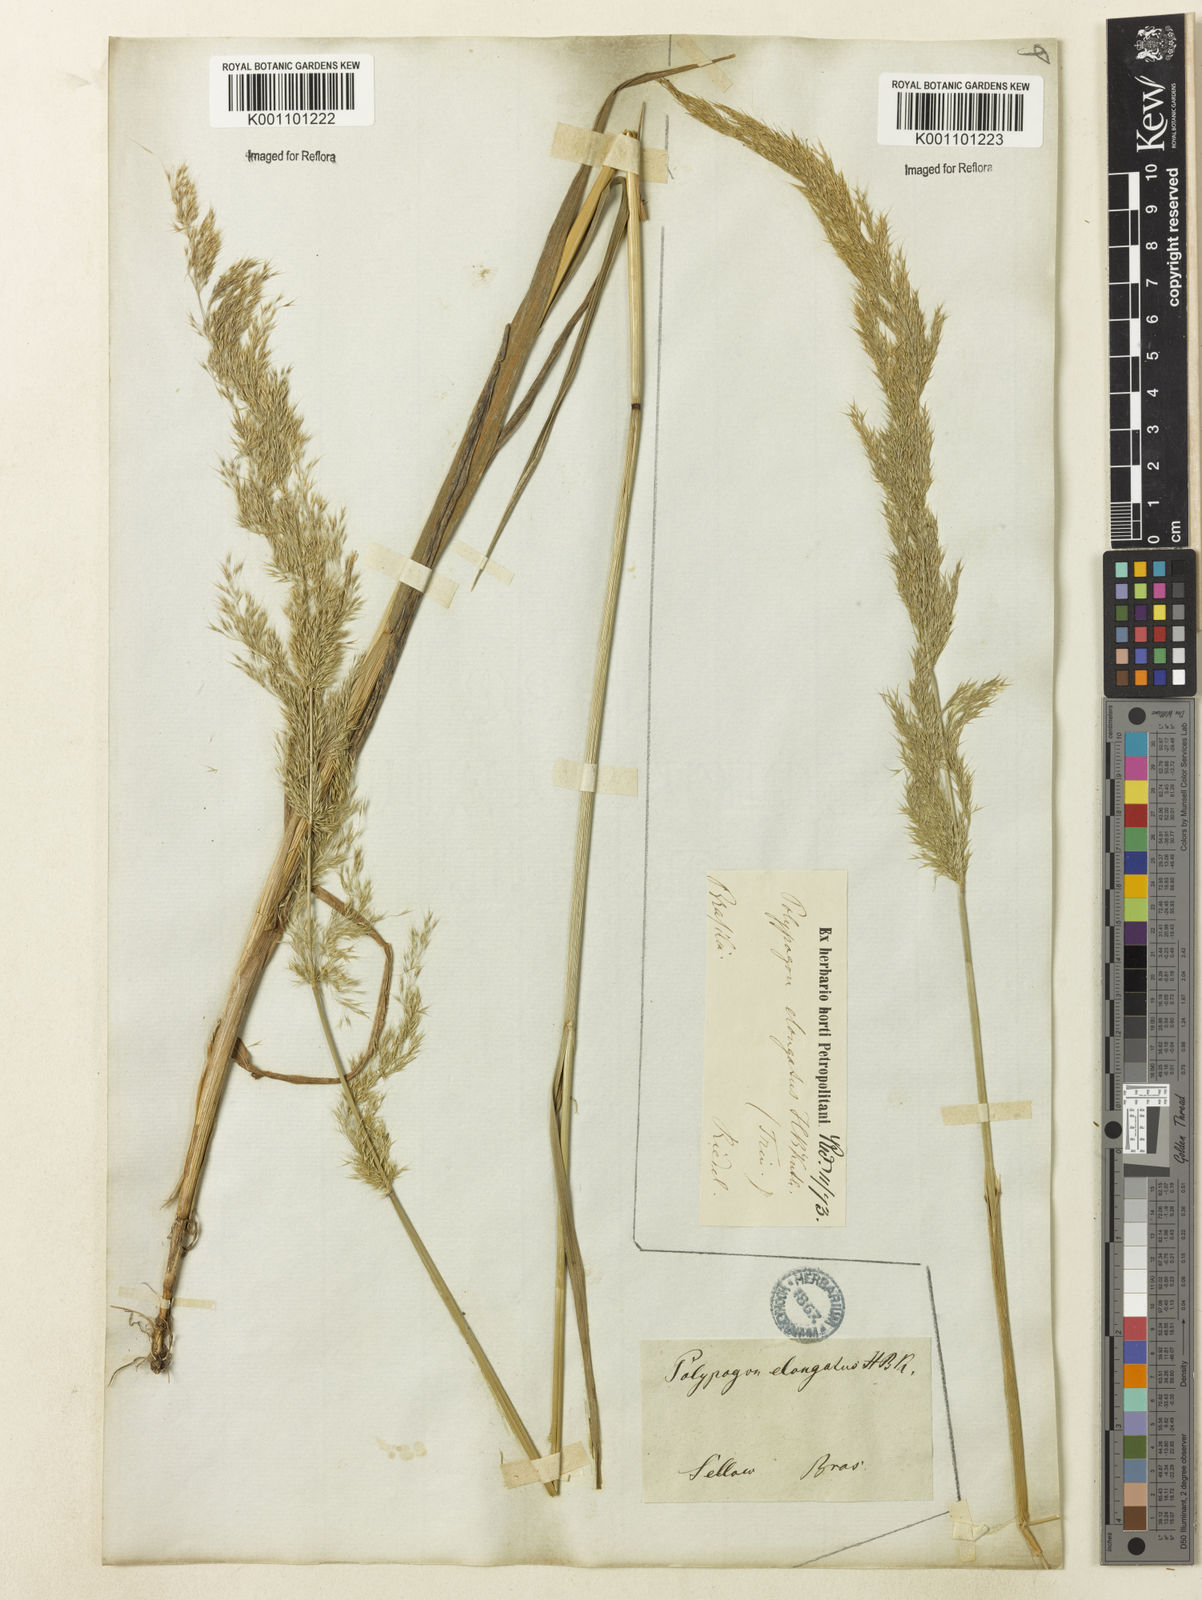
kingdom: Plantae
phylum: Tracheophyta
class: Liliopsida
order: Poales
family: Poaceae
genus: Polypogon
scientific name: Polypogon elongatus
